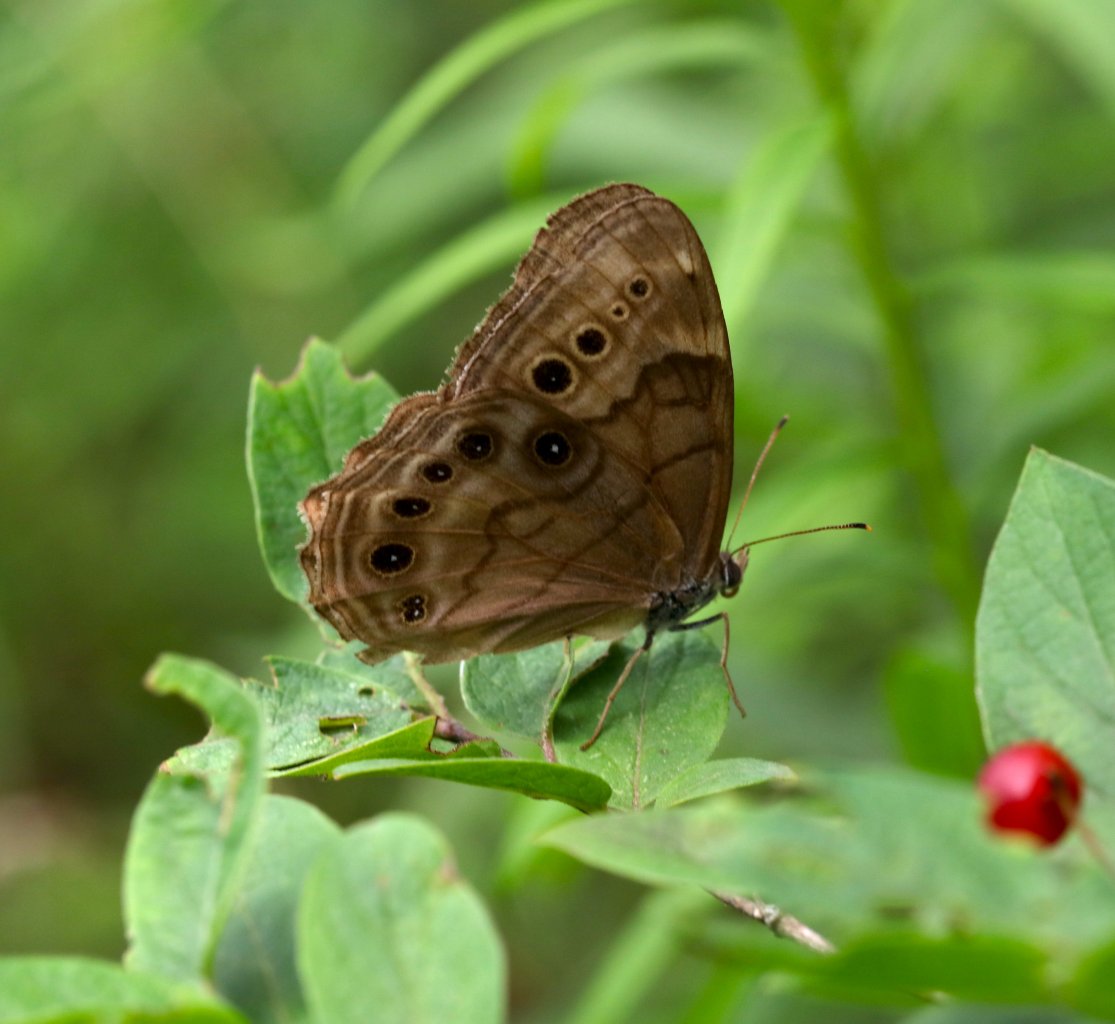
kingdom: Animalia
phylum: Arthropoda
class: Insecta
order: Lepidoptera
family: Nymphalidae
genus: Lethe
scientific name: Lethe anthedon
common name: Northern Pearly-Eye
